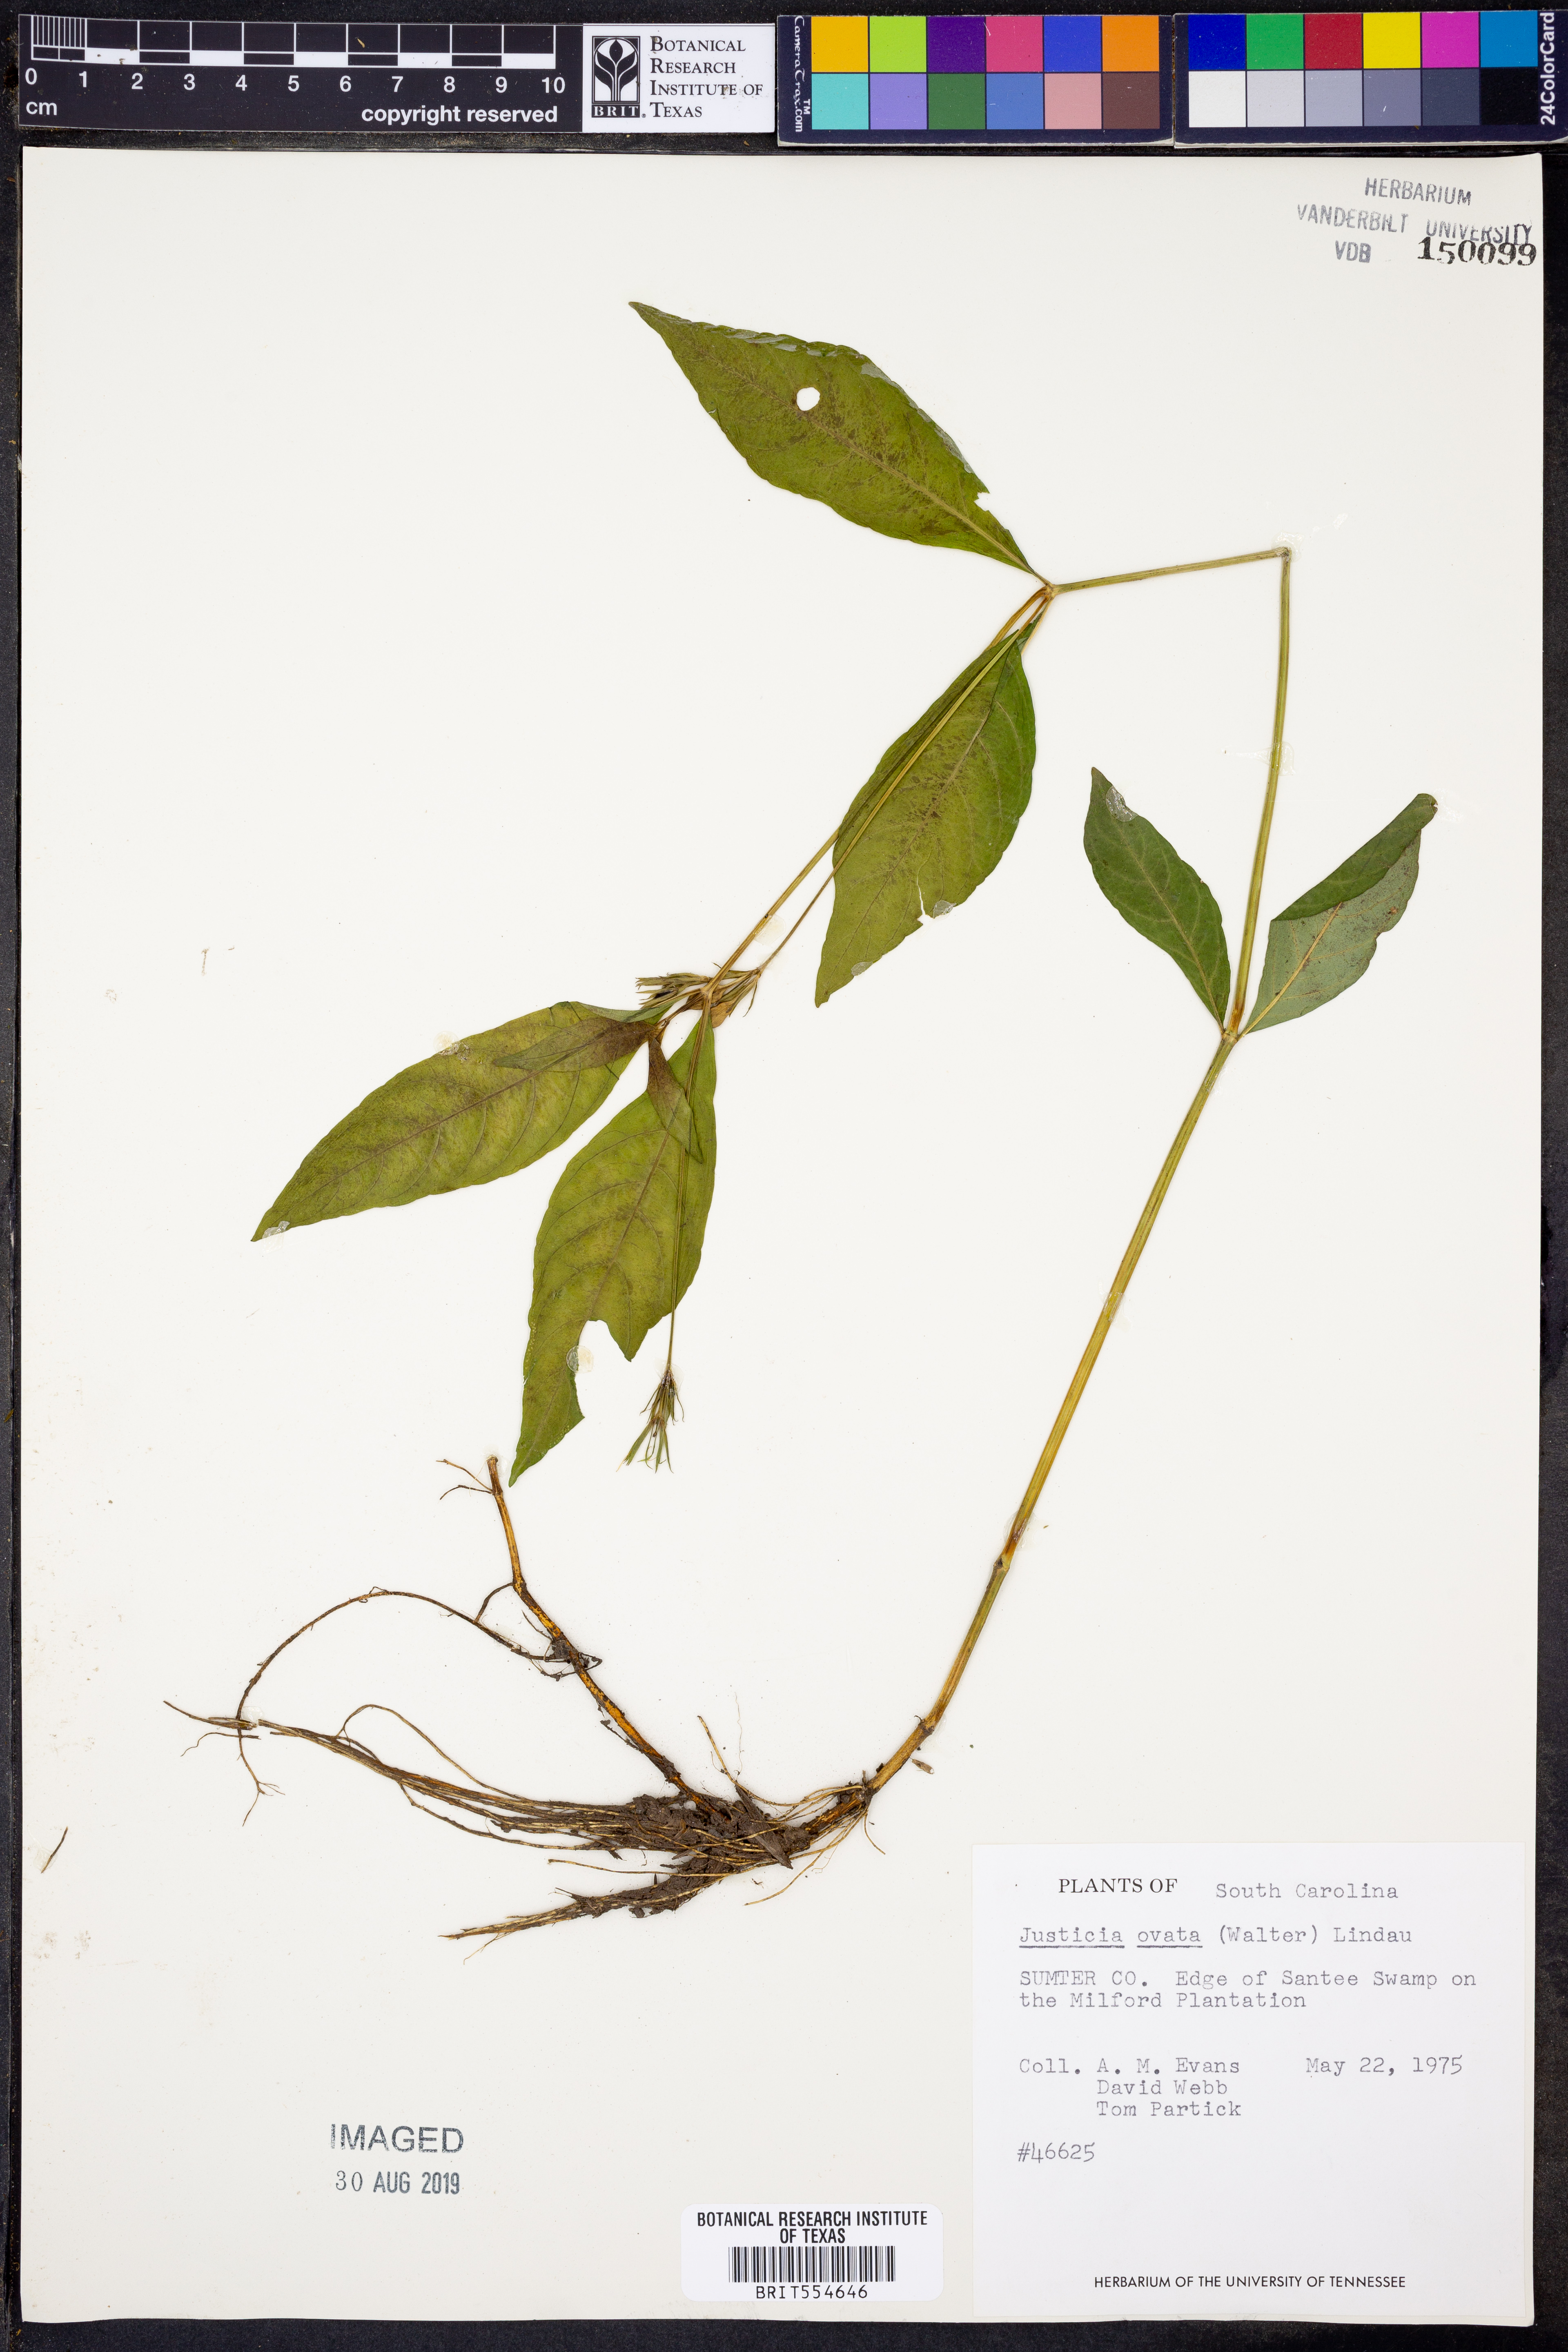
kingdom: Plantae
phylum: Tracheophyta
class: Magnoliopsida
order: Lamiales
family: Acanthaceae
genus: Dianthera
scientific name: Dianthera ovata
